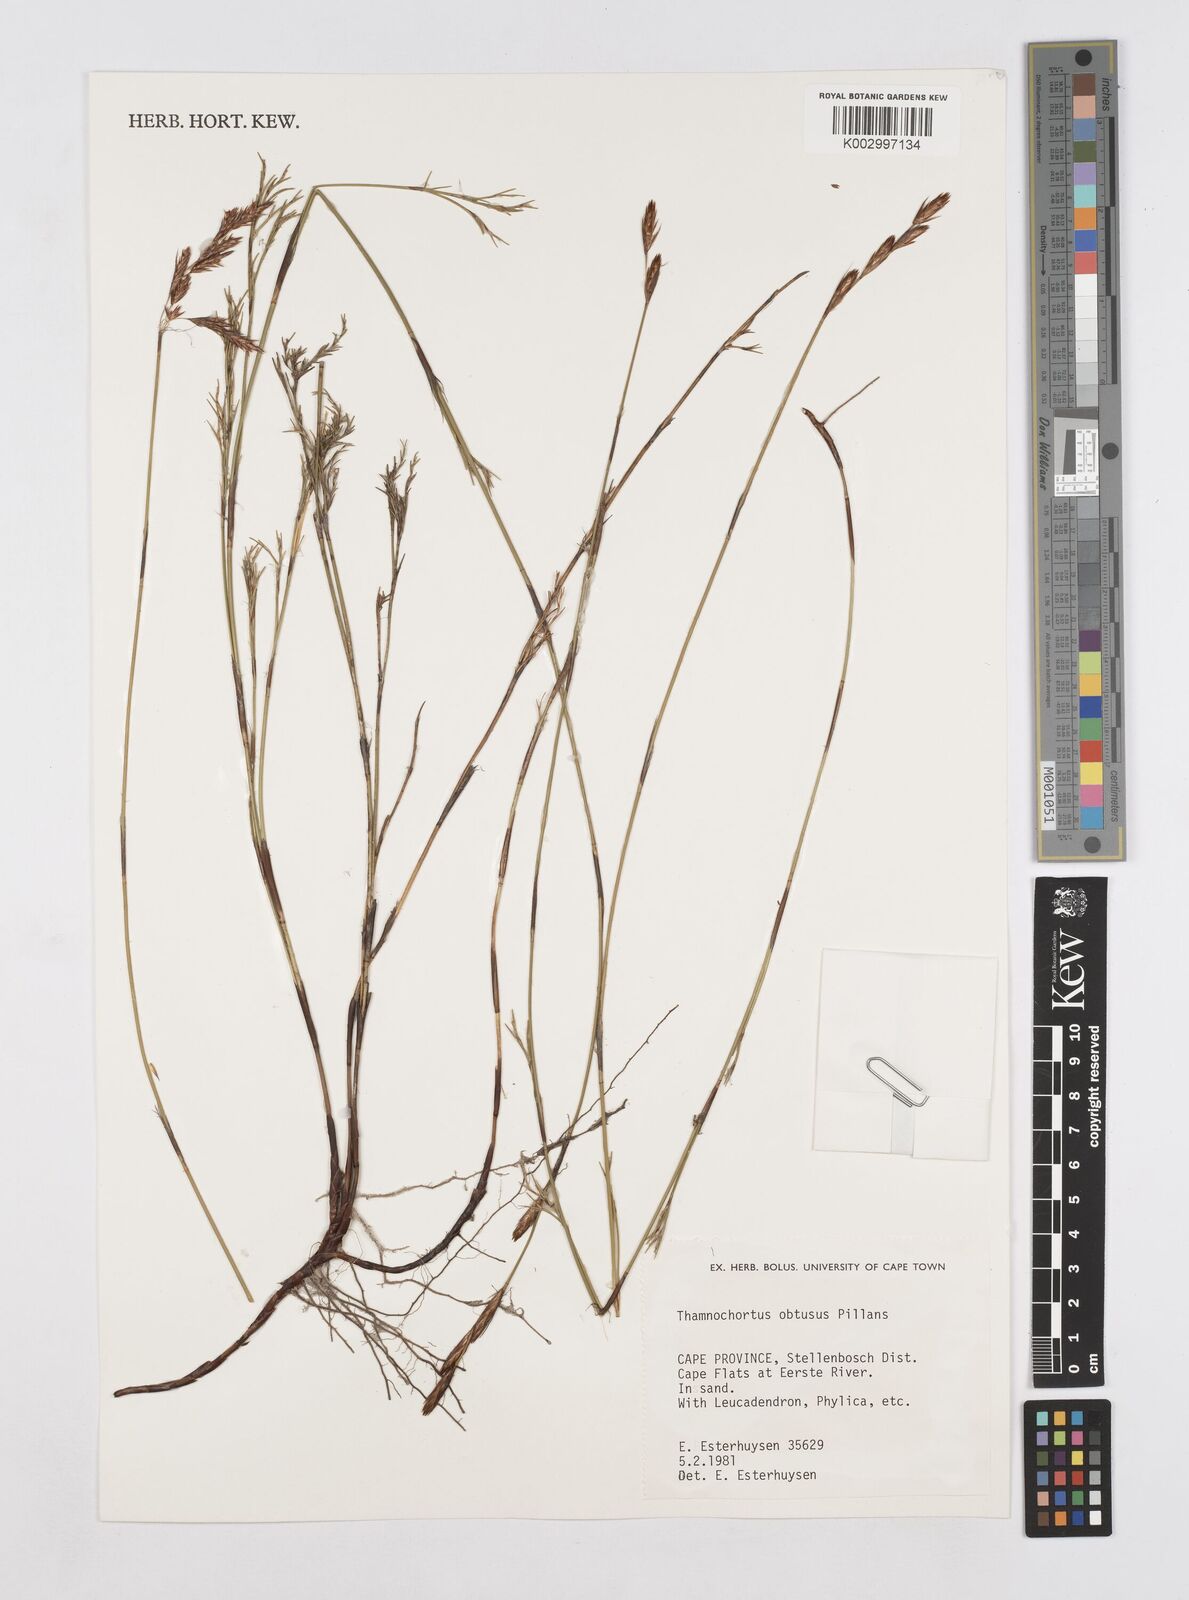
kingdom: Plantae
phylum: Tracheophyta
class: Liliopsida
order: Poales
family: Restionaceae
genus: Thamnochortus
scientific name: Thamnochortus obtusus
